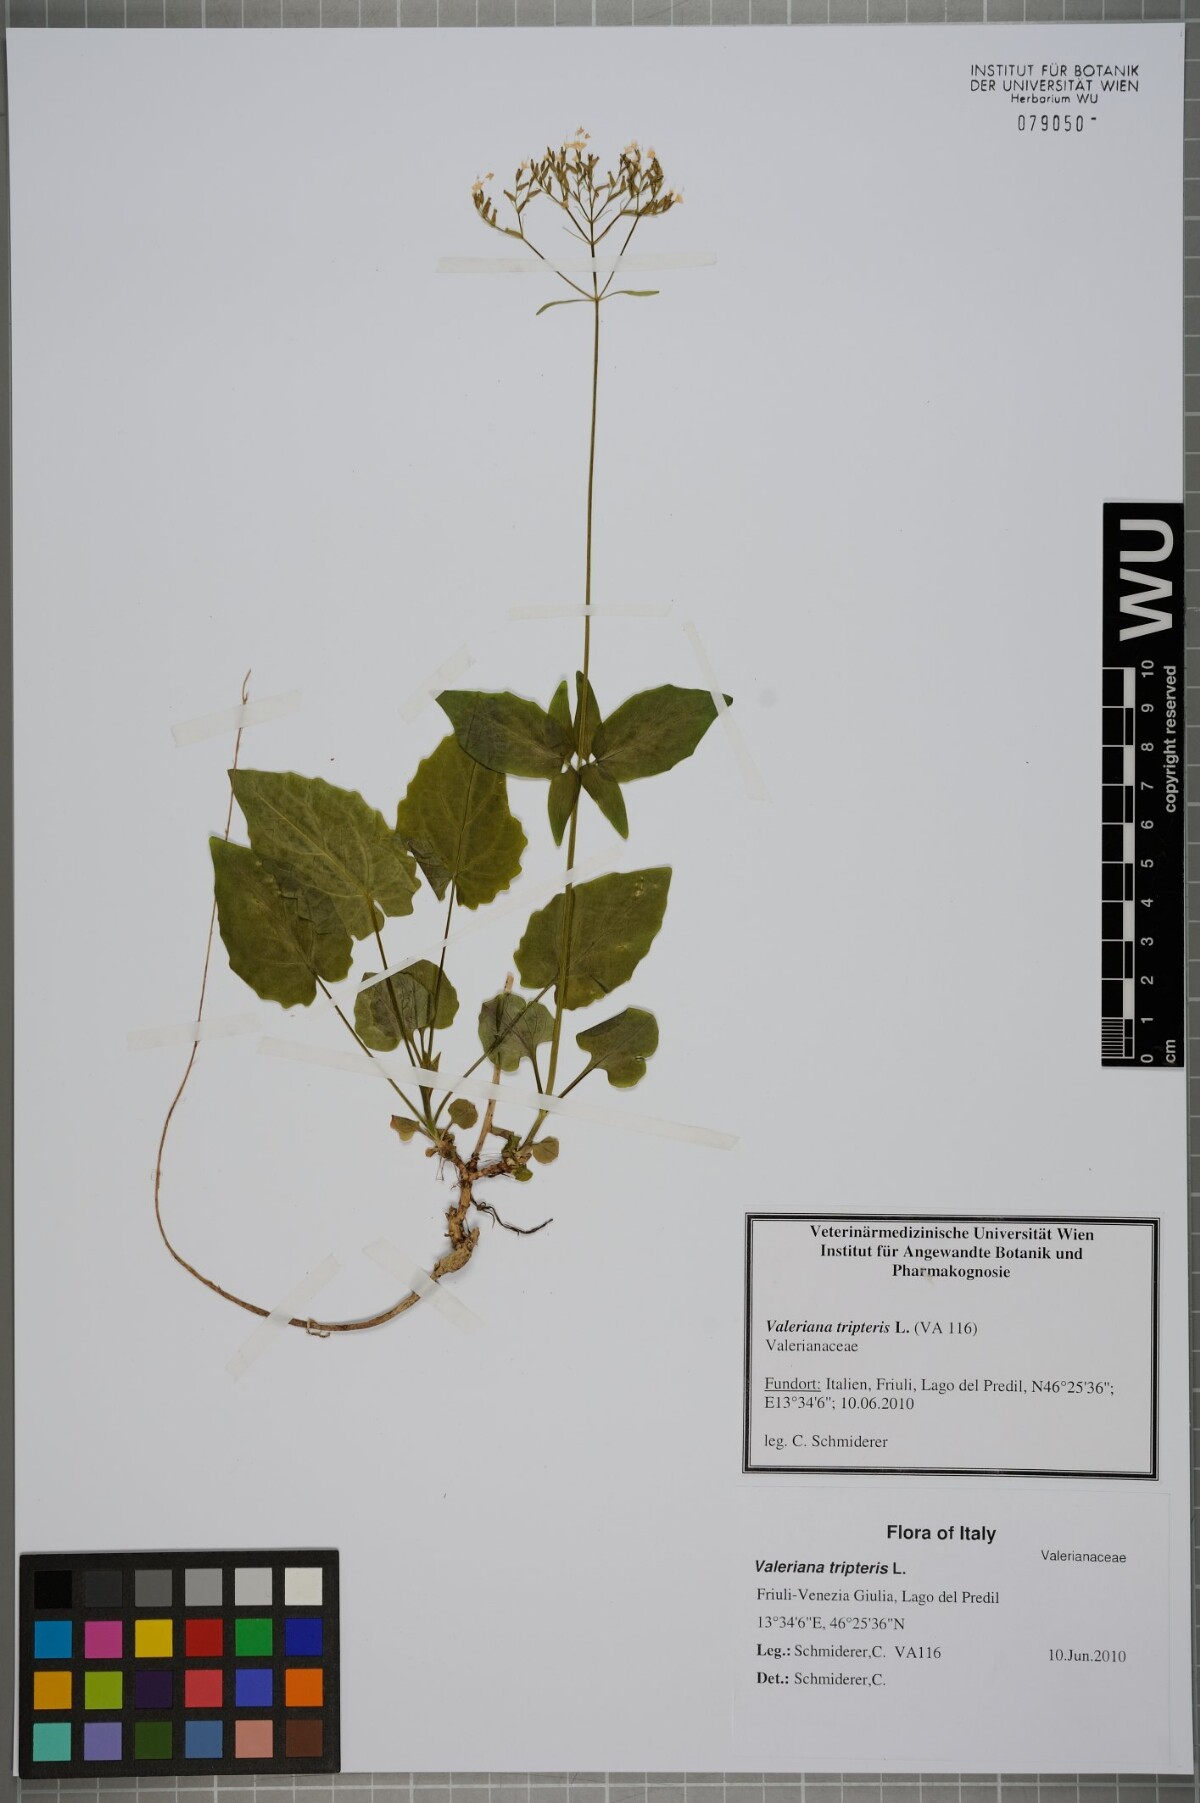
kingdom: Plantae
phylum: Tracheophyta
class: Magnoliopsida
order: Dipsacales
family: Caprifoliaceae
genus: Valeriana
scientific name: Valeriana tripteris
